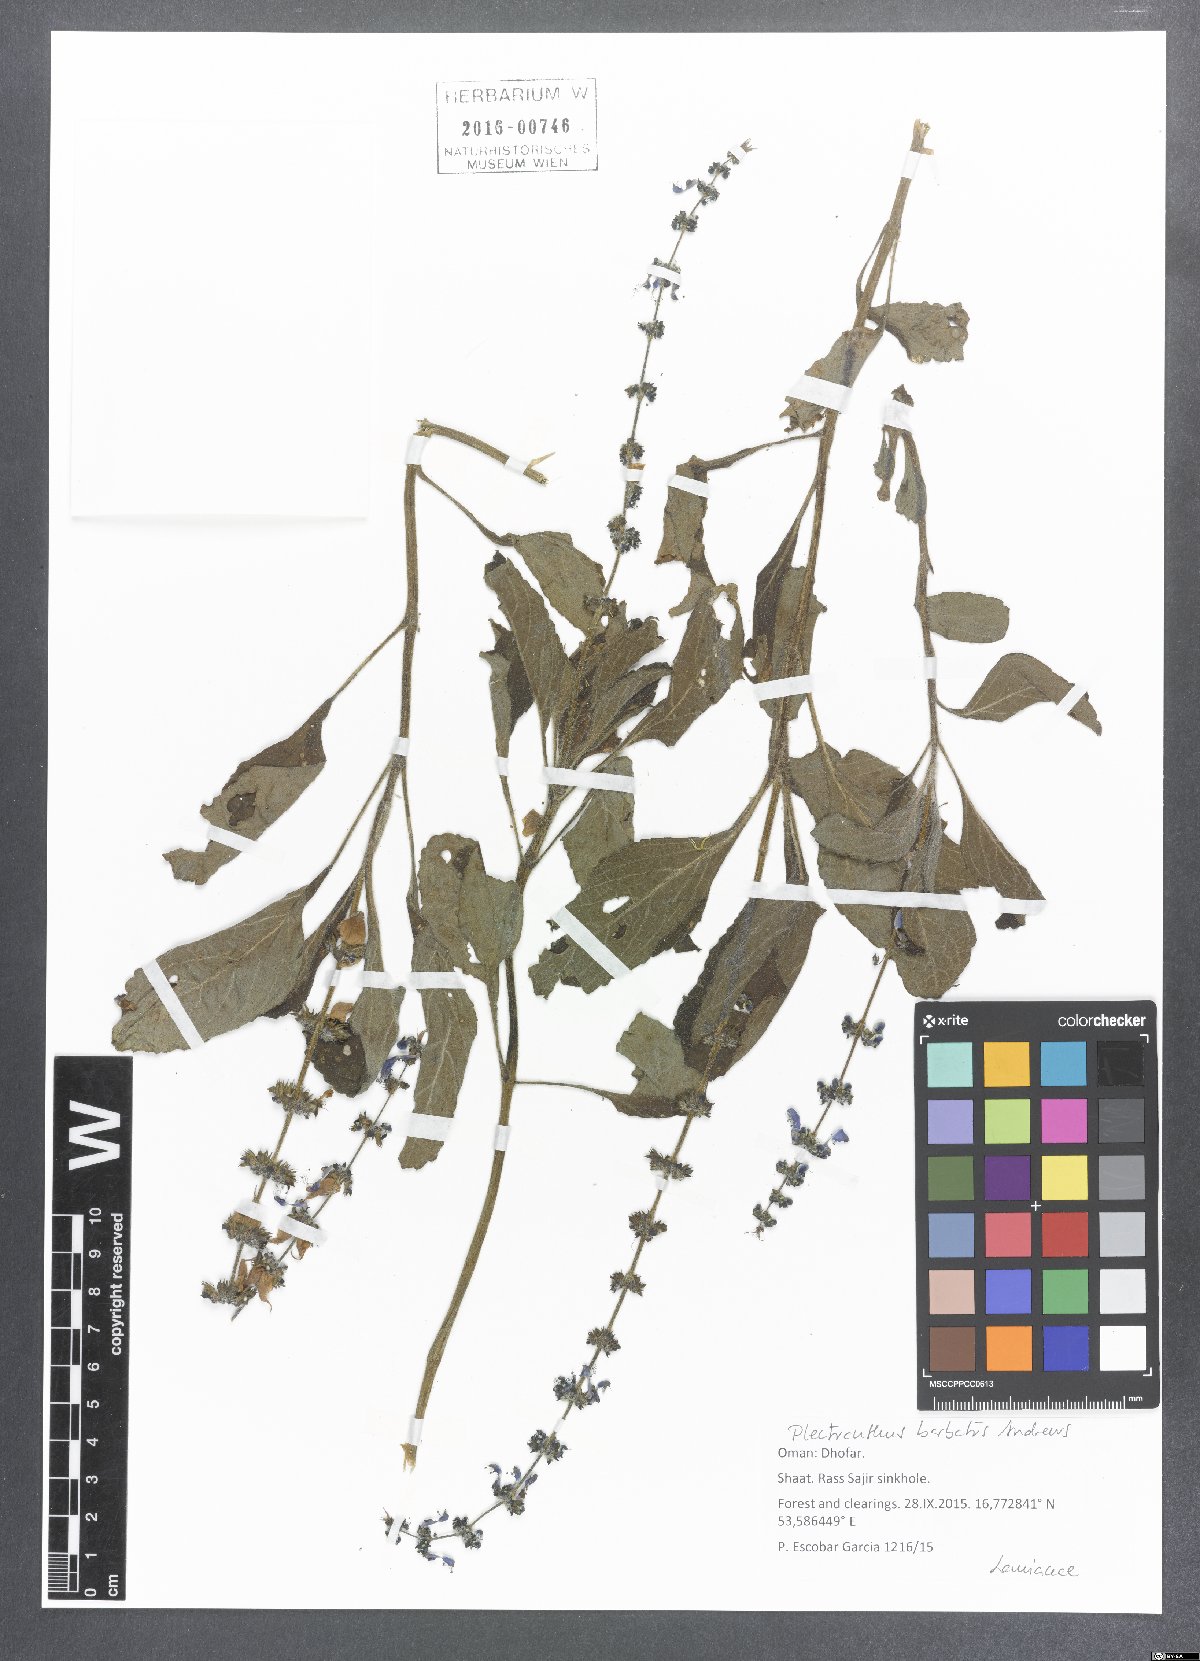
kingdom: Plantae
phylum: Tracheophyta
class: Magnoliopsida
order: Lamiales
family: Lamiaceae
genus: Coleus
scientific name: Coleus barbatus
